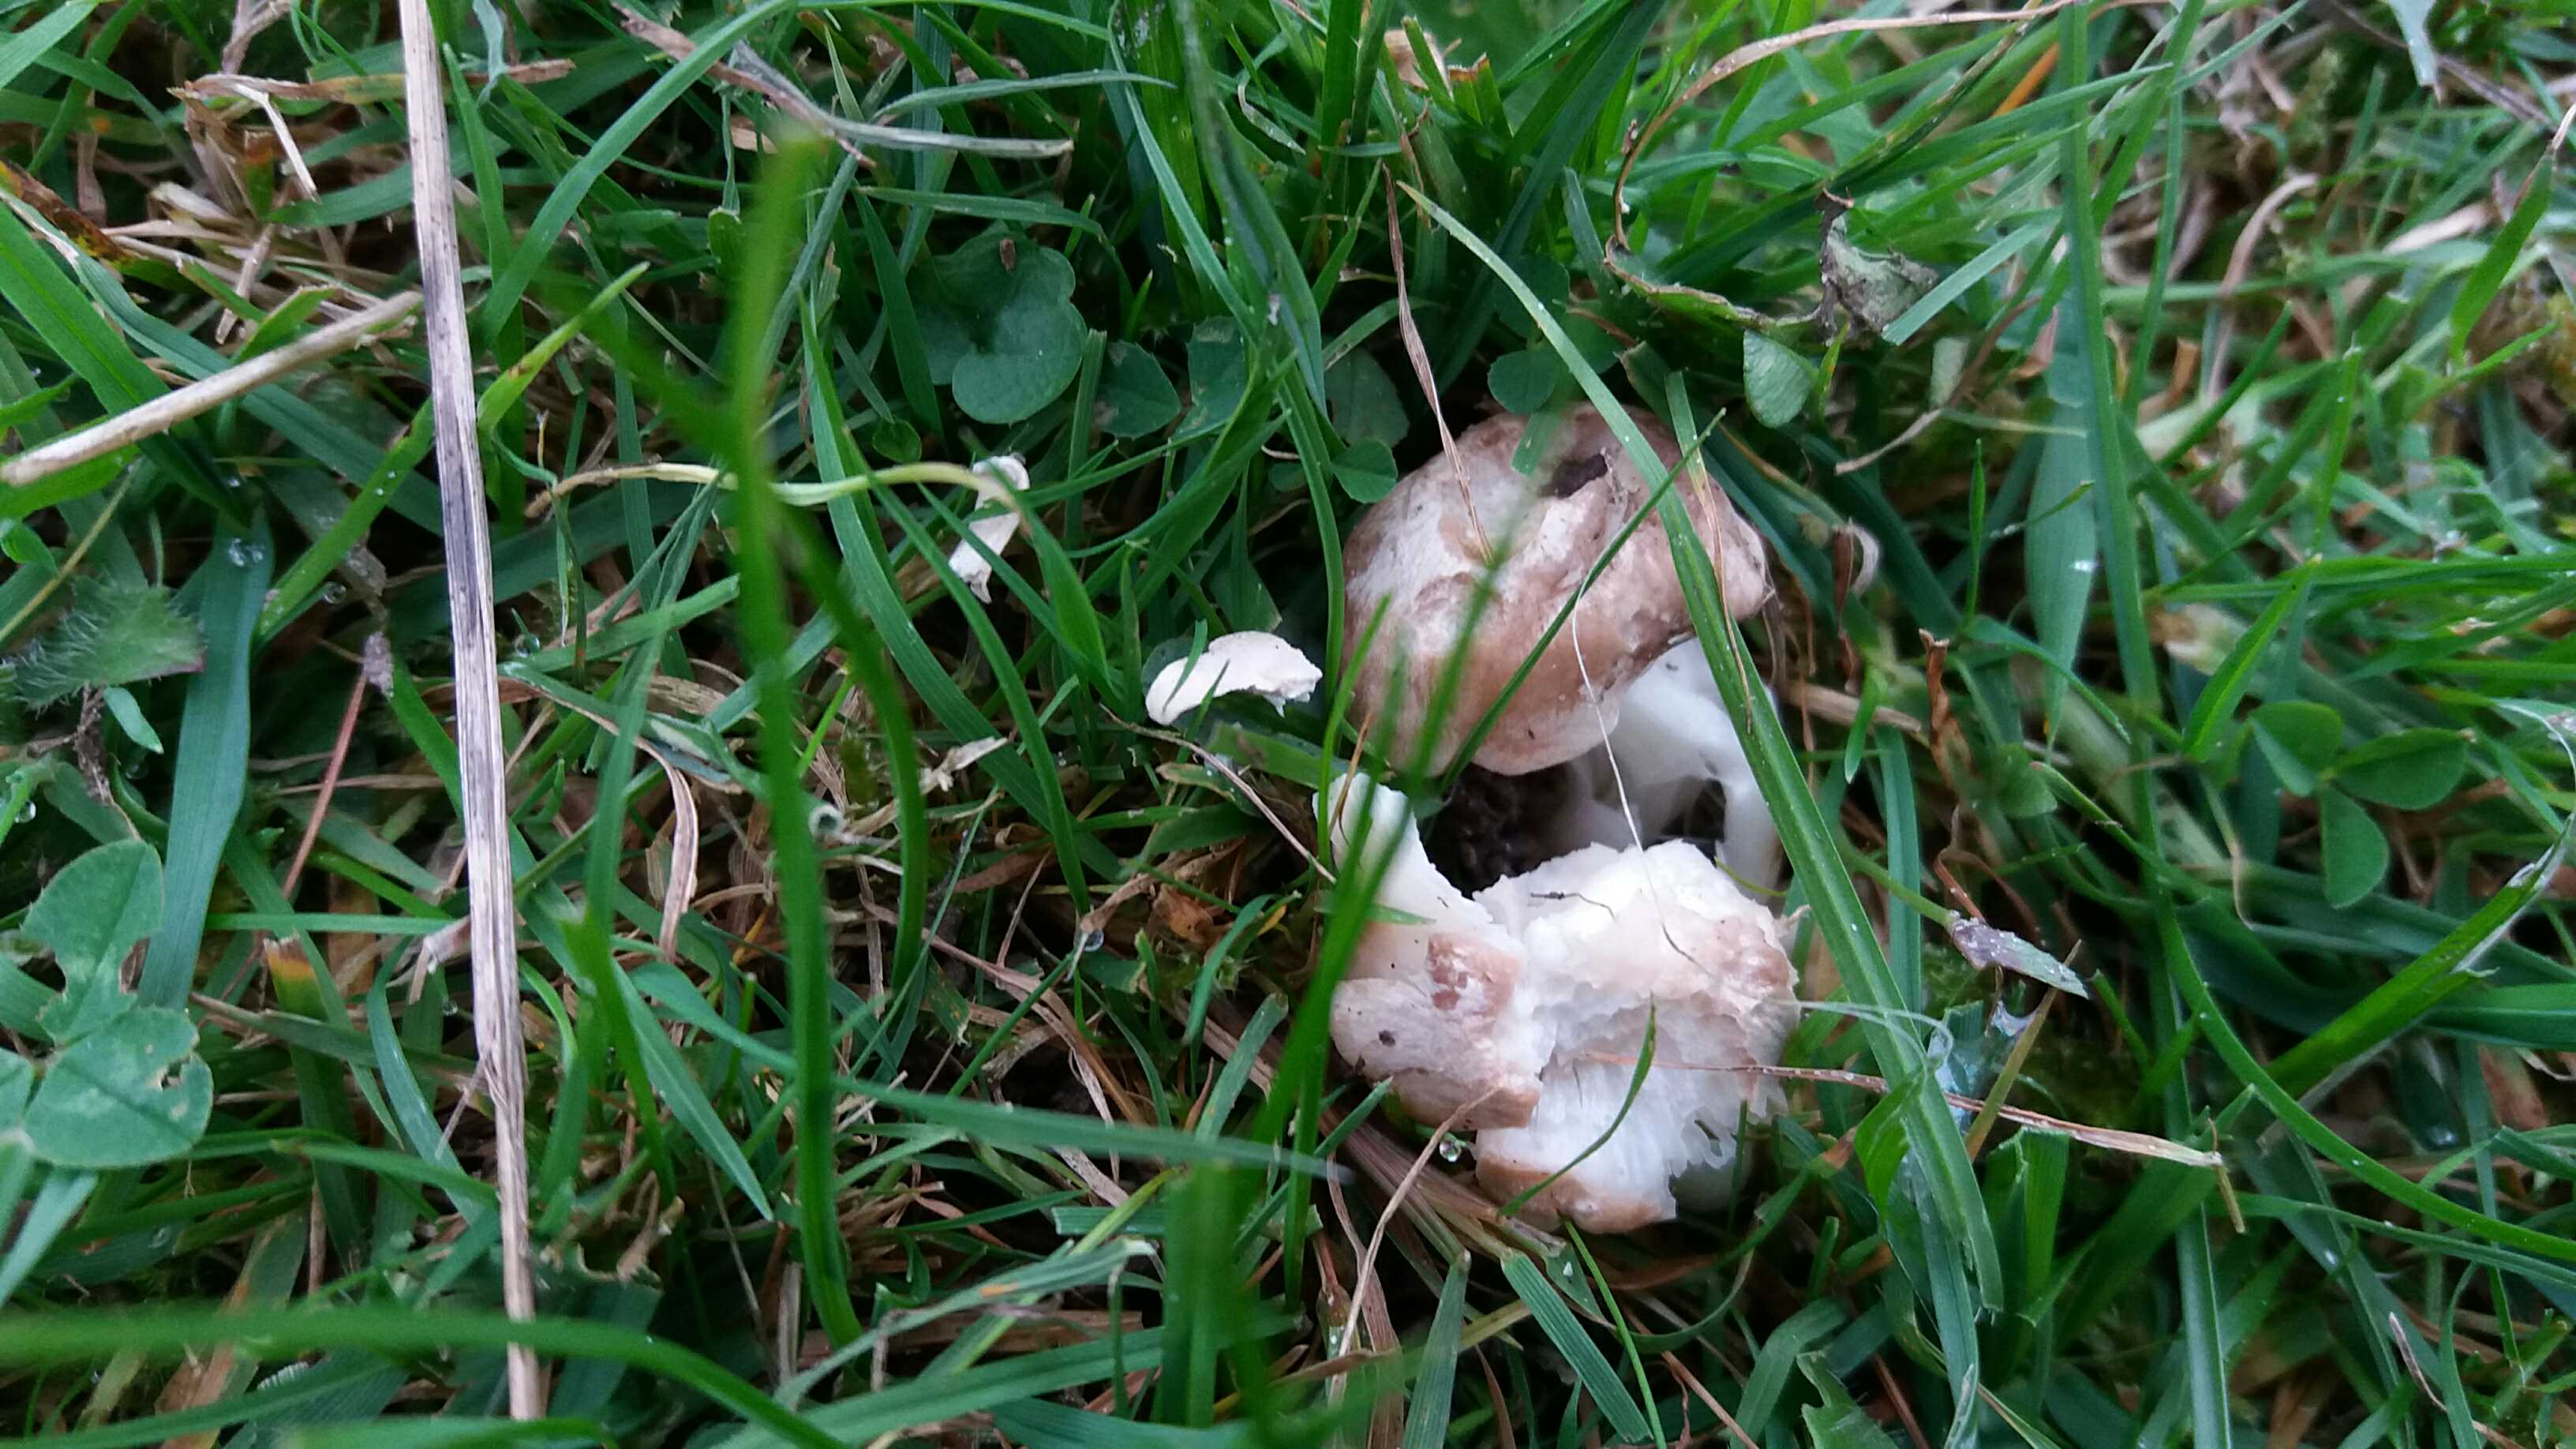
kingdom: Fungi
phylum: Basidiomycota
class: Agaricomycetes
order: Agaricales
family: Hygrophoraceae
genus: Cuphophyllus
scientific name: Cuphophyllus pratensis
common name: eng-vokshat
